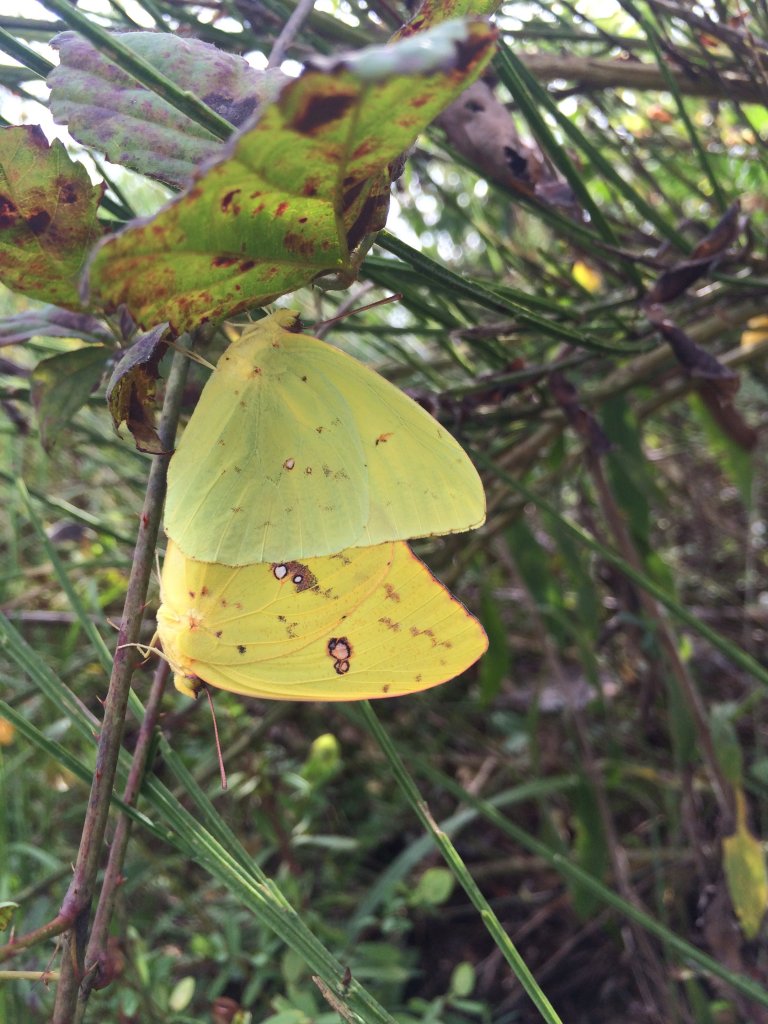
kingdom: Animalia
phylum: Arthropoda
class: Insecta
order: Lepidoptera
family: Pieridae
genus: Phoebis
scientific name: Phoebis sennae
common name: Cloudless Sulphur
